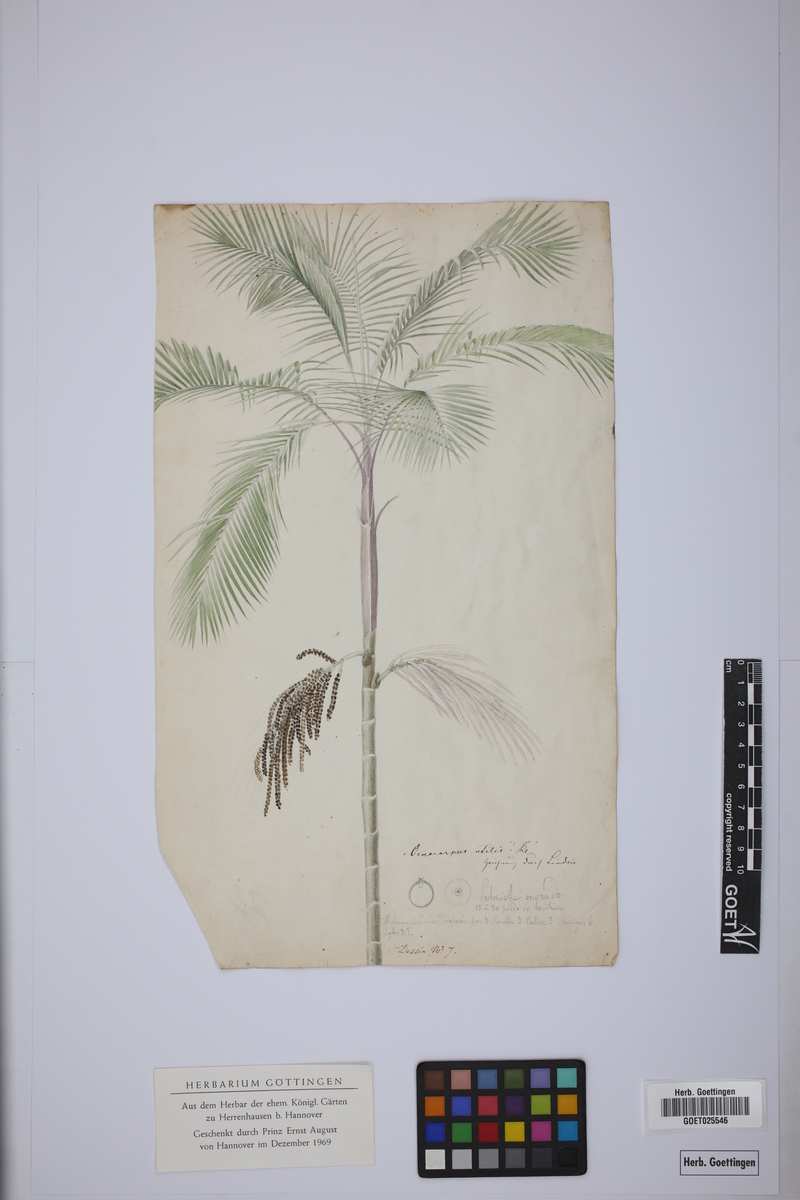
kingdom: Plantae
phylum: Tracheophyta
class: Liliopsida
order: Arecales
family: Arecaceae
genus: Prestoea
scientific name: Prestoea acuminata
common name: Sierran palm
